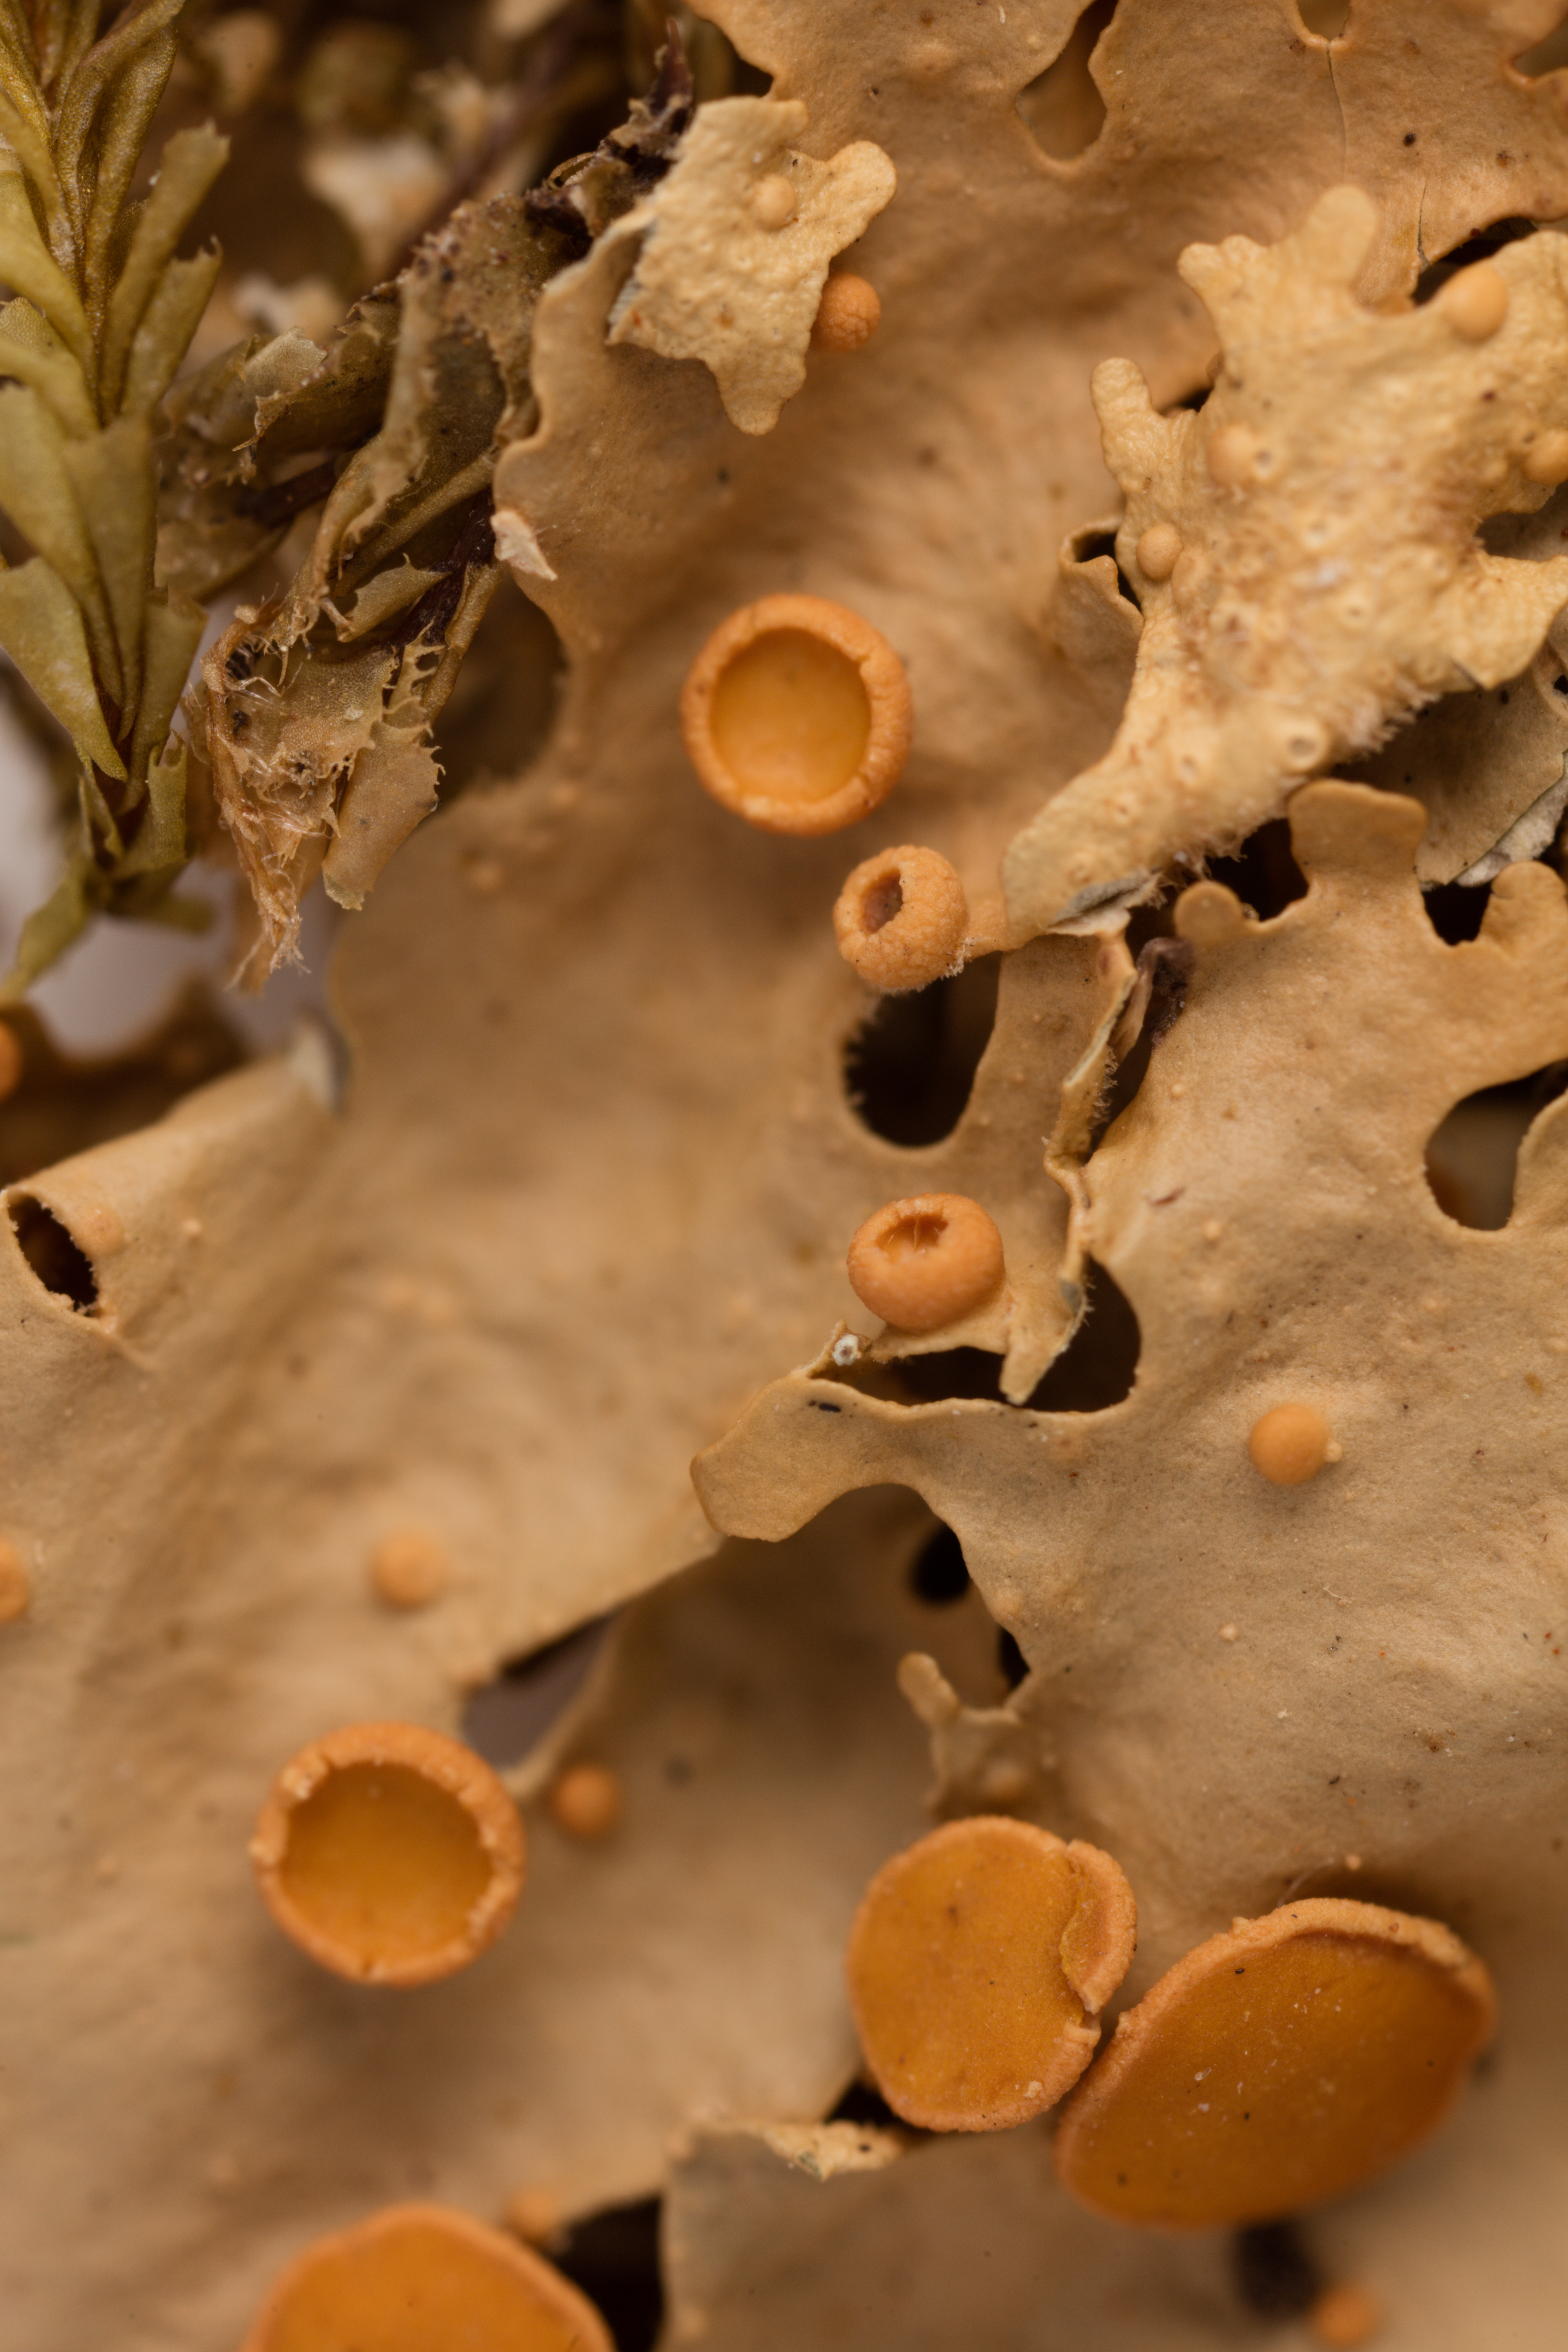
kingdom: Fungi
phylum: Ascomycota
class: Lecanoromycetes
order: Peltigerales
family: Lobariaceae
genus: Sticta
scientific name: Sticta latifrons
